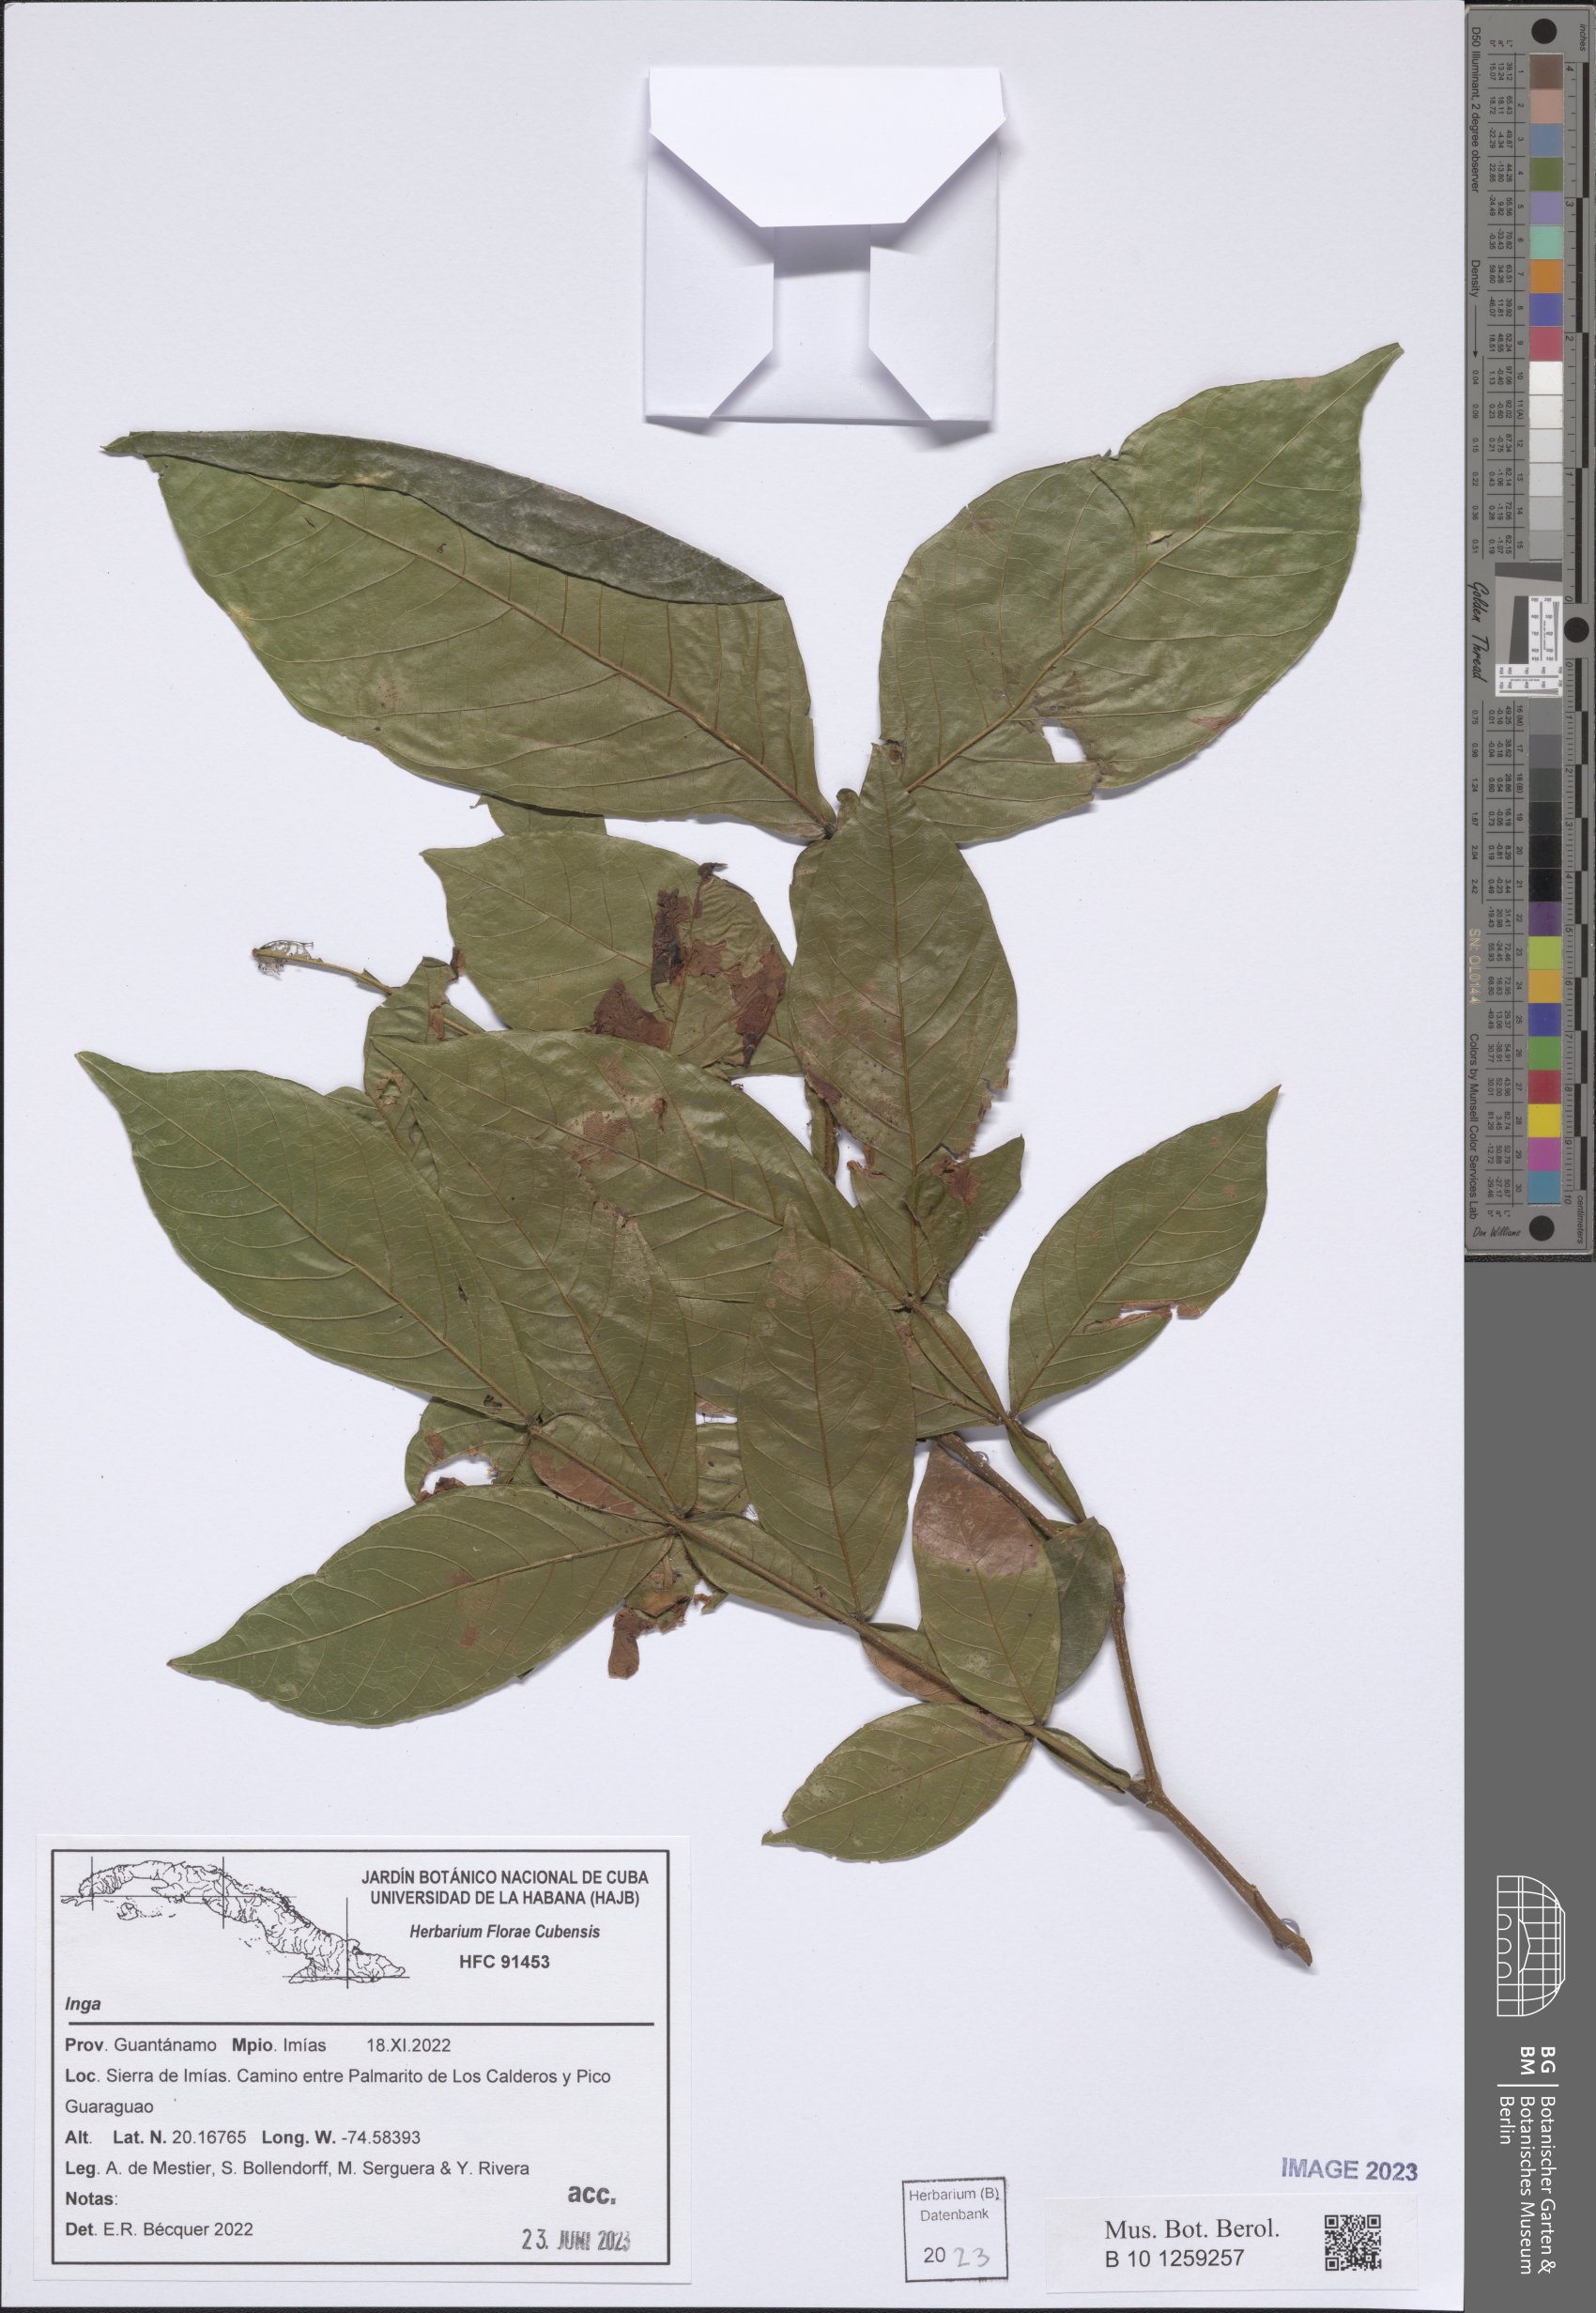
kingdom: Plantae
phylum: Tracheophyta
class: Magnoliopsida
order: Fabales
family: Fabaceae
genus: Inga
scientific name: Inga
